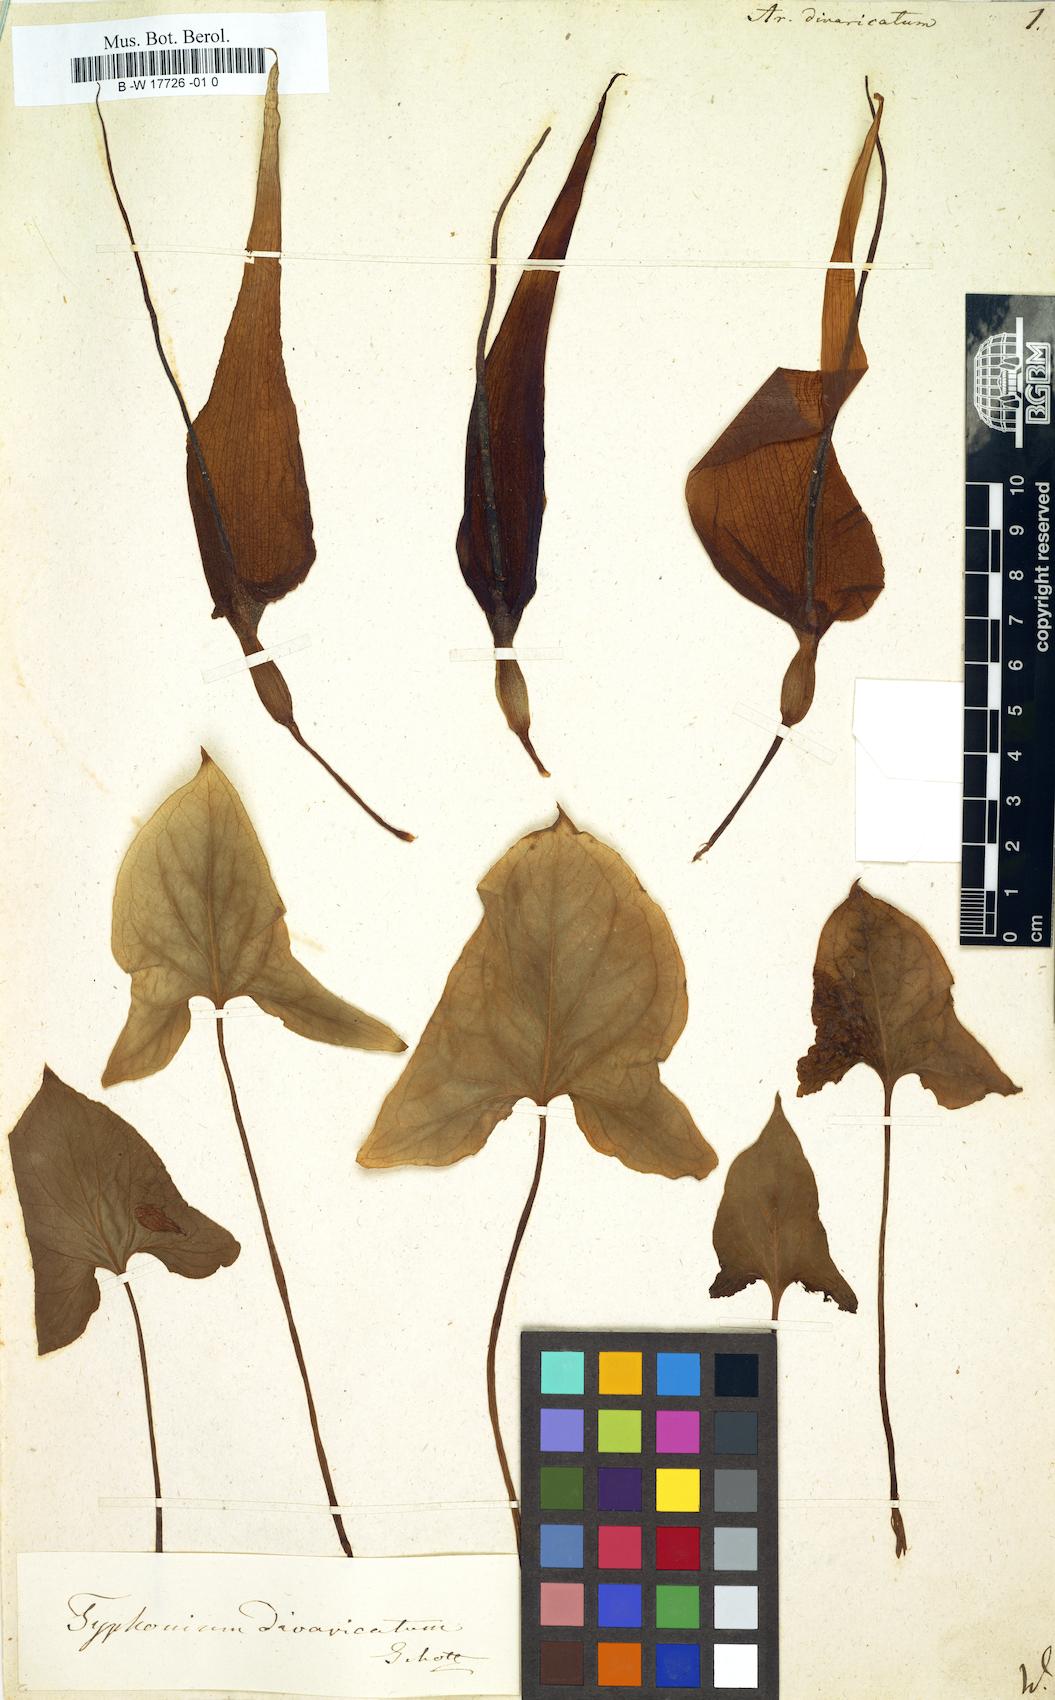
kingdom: Plantae
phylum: Tracheophyta
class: Liliopsida
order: Alismatales
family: Araceae
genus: Arum
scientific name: Arum divaricatum
